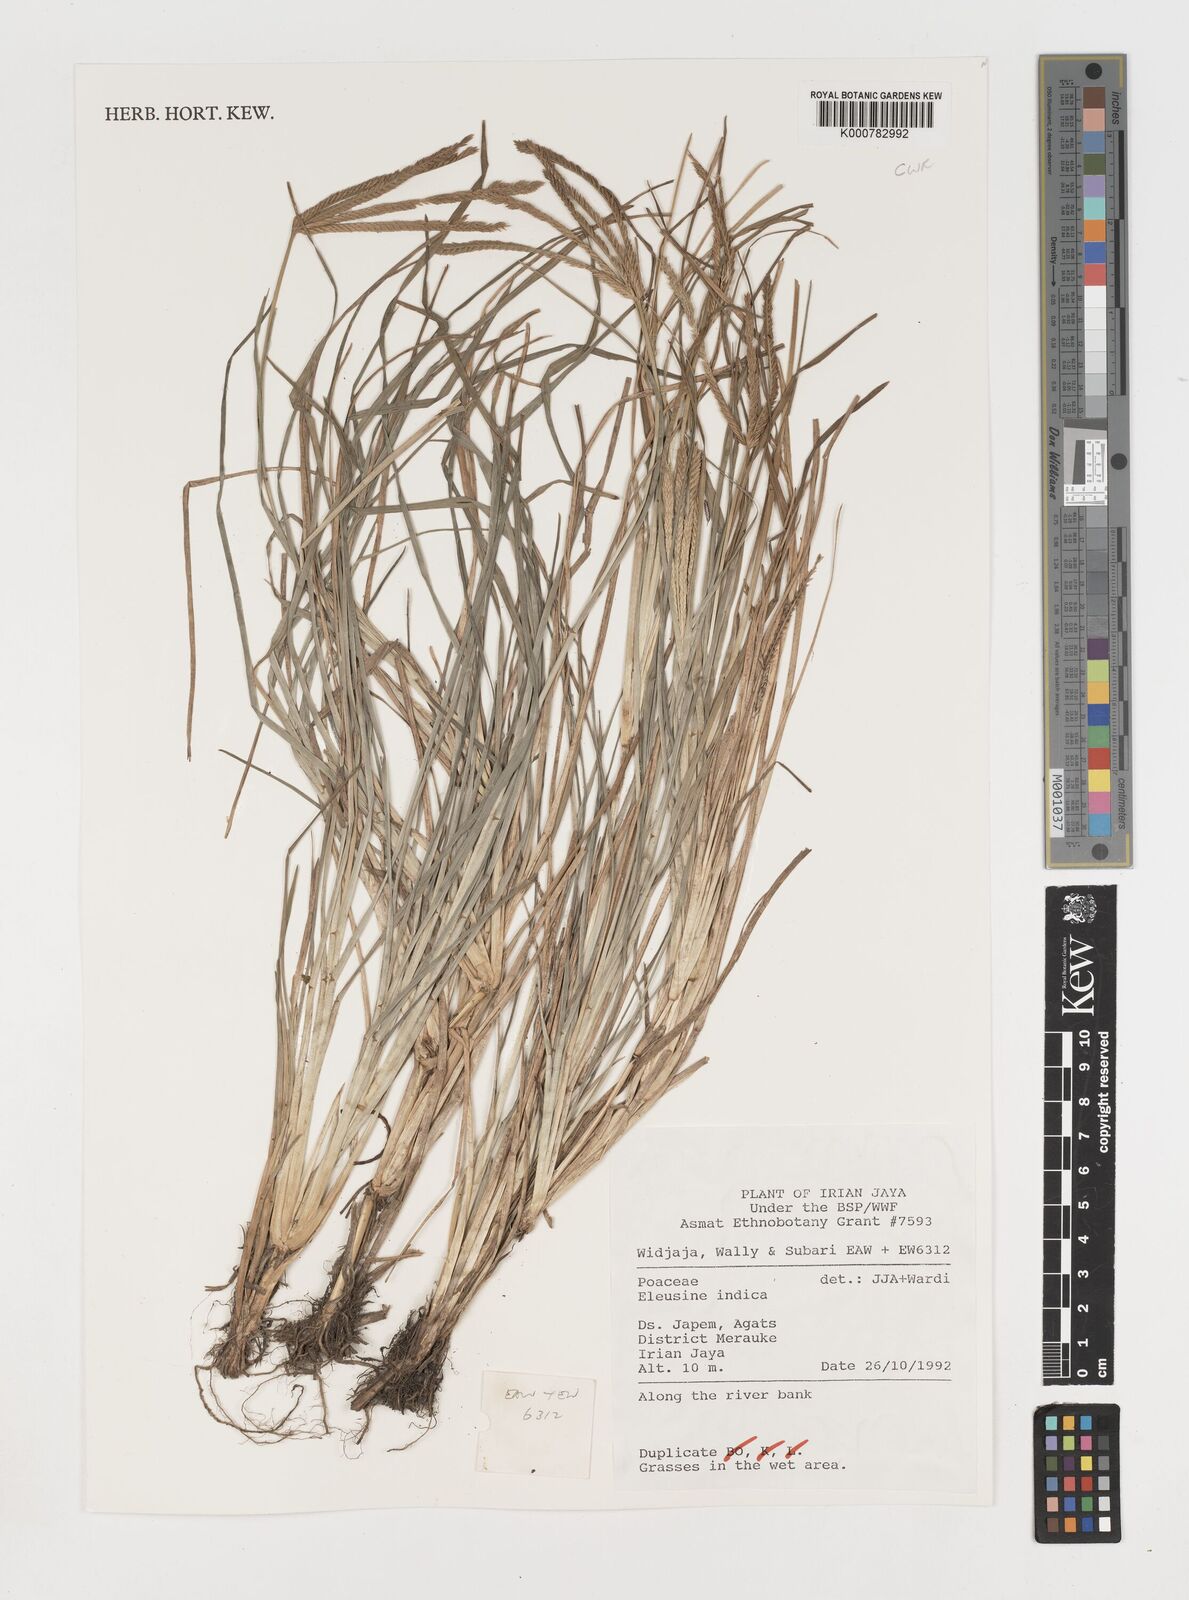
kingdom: Plantae
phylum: Tracheophyta
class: Liliopsida
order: Poales
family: Poaceae
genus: Eleusine
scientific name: Eleusine indica
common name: Yard-grass
